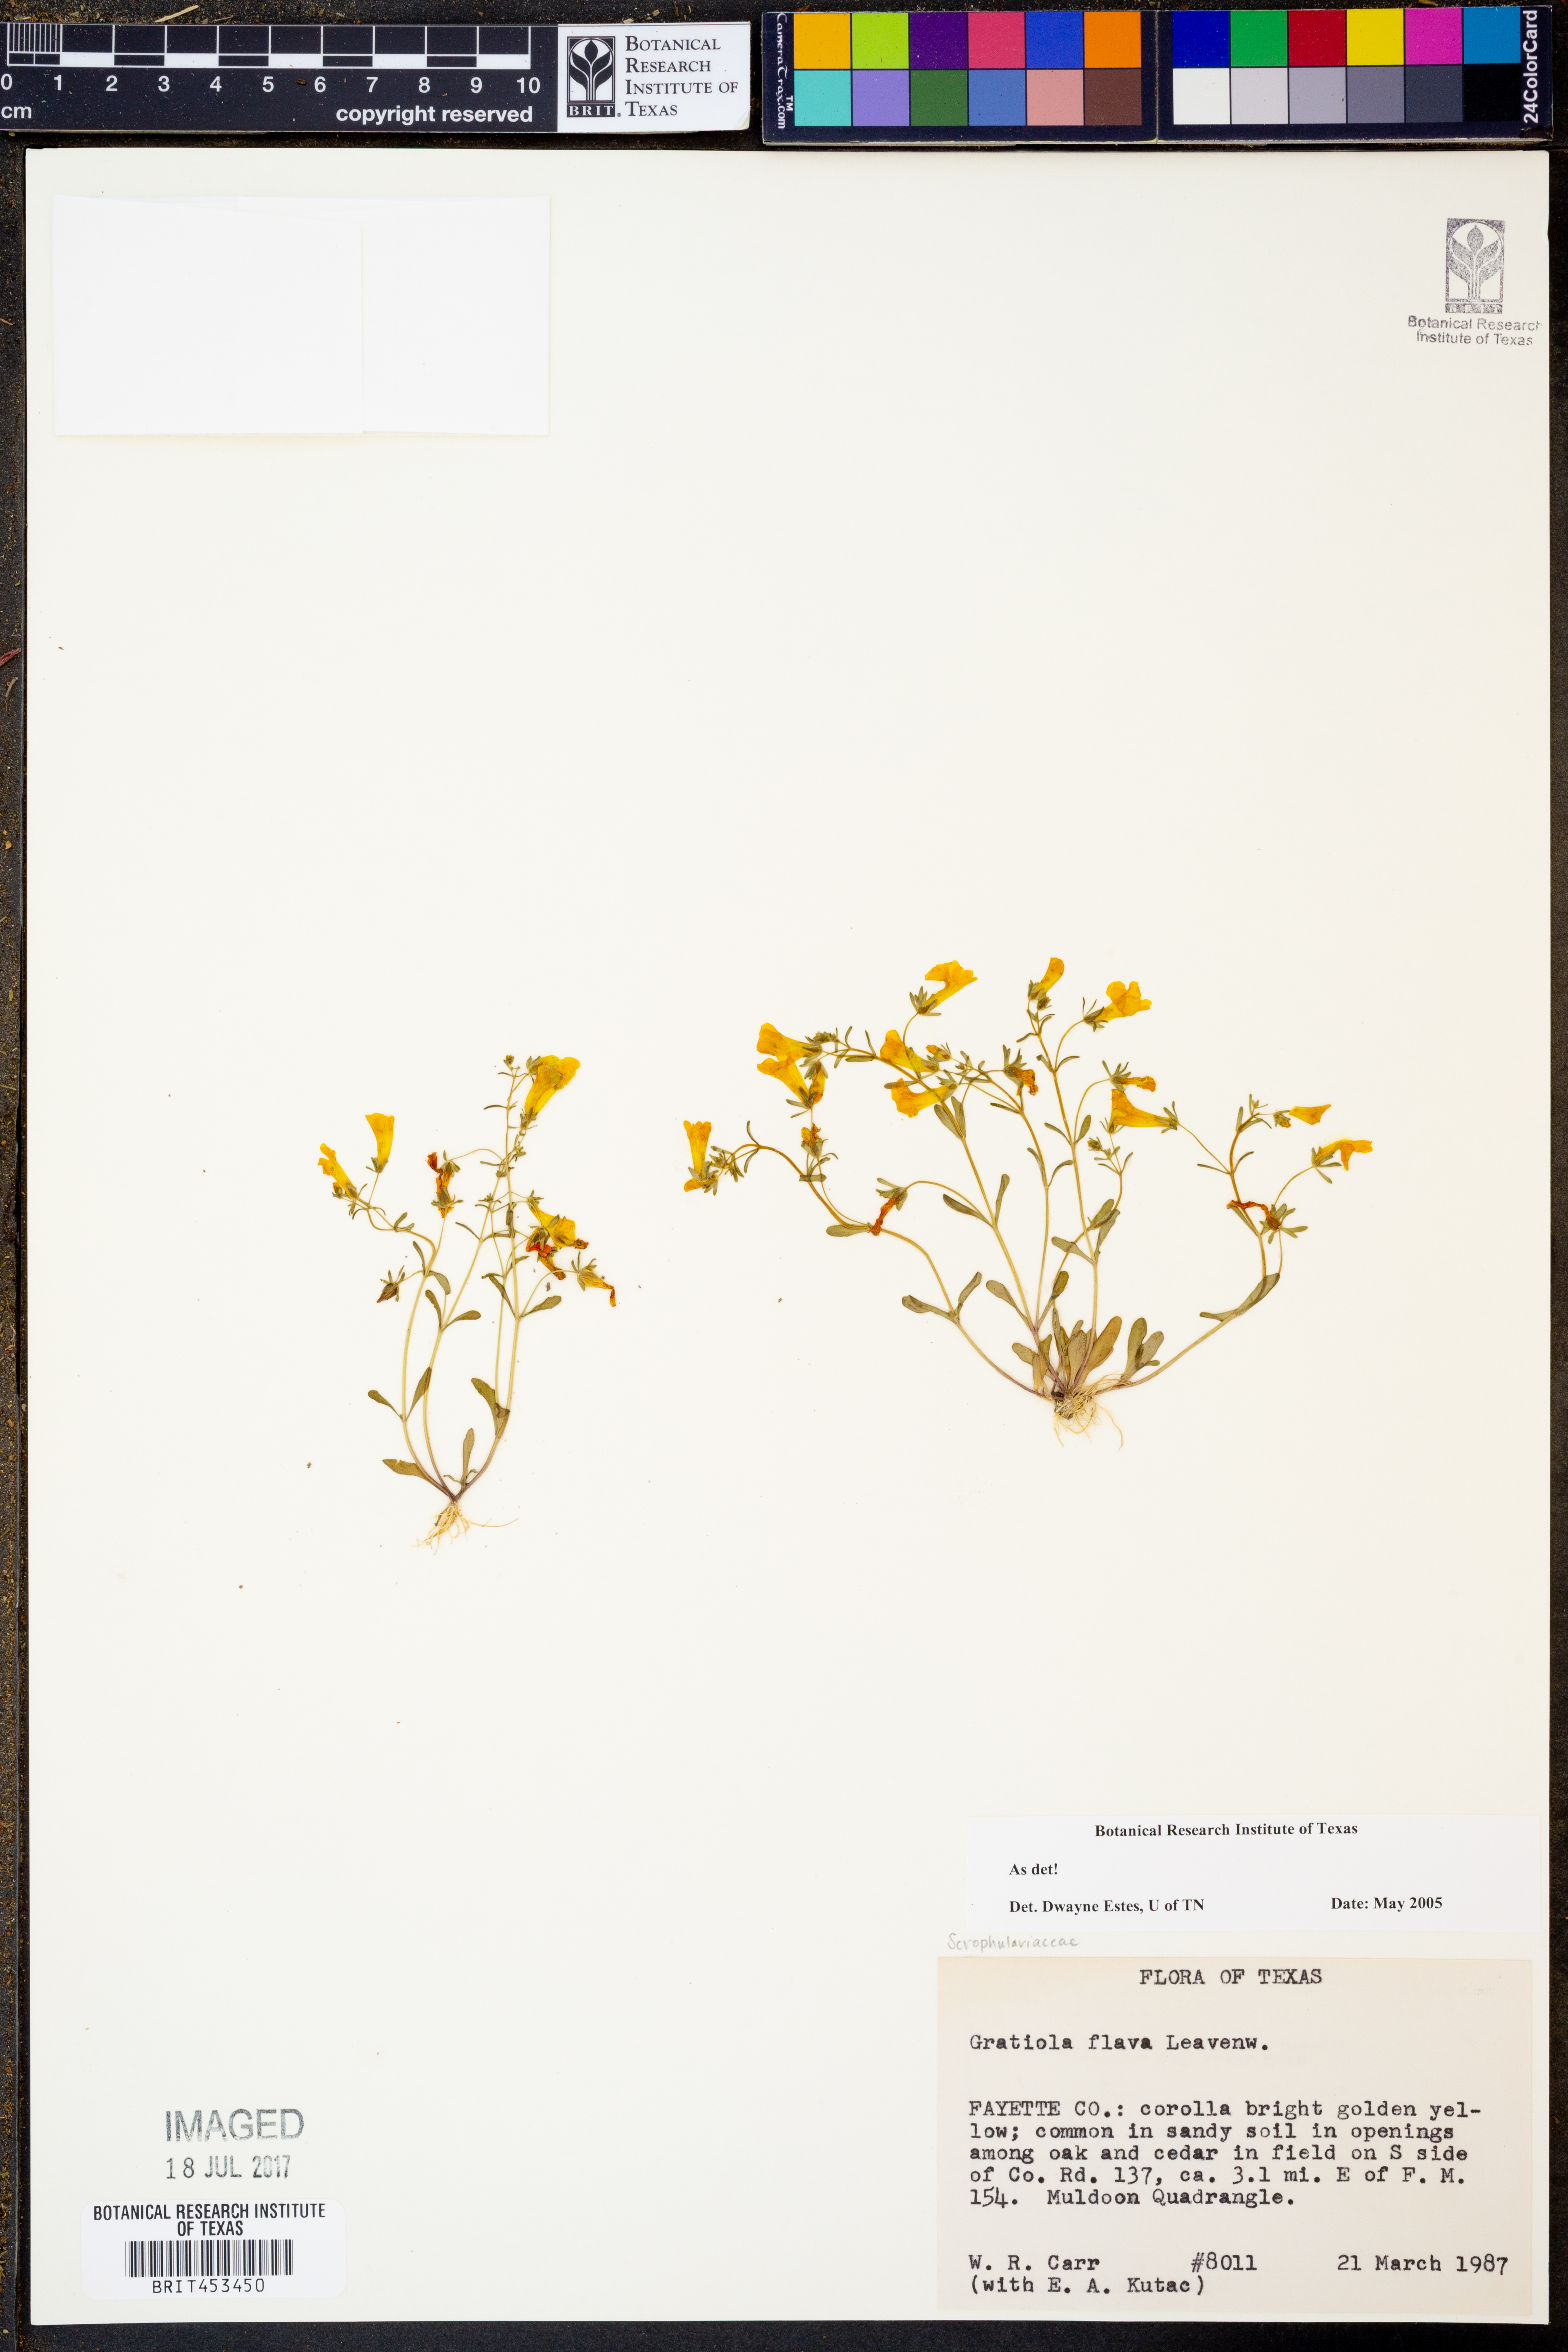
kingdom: Plantae
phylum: Tracheophyta
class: Magnoliopsida
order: Lamiales
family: Plantaginaceae
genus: Gratiola
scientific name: Gratiola flava
